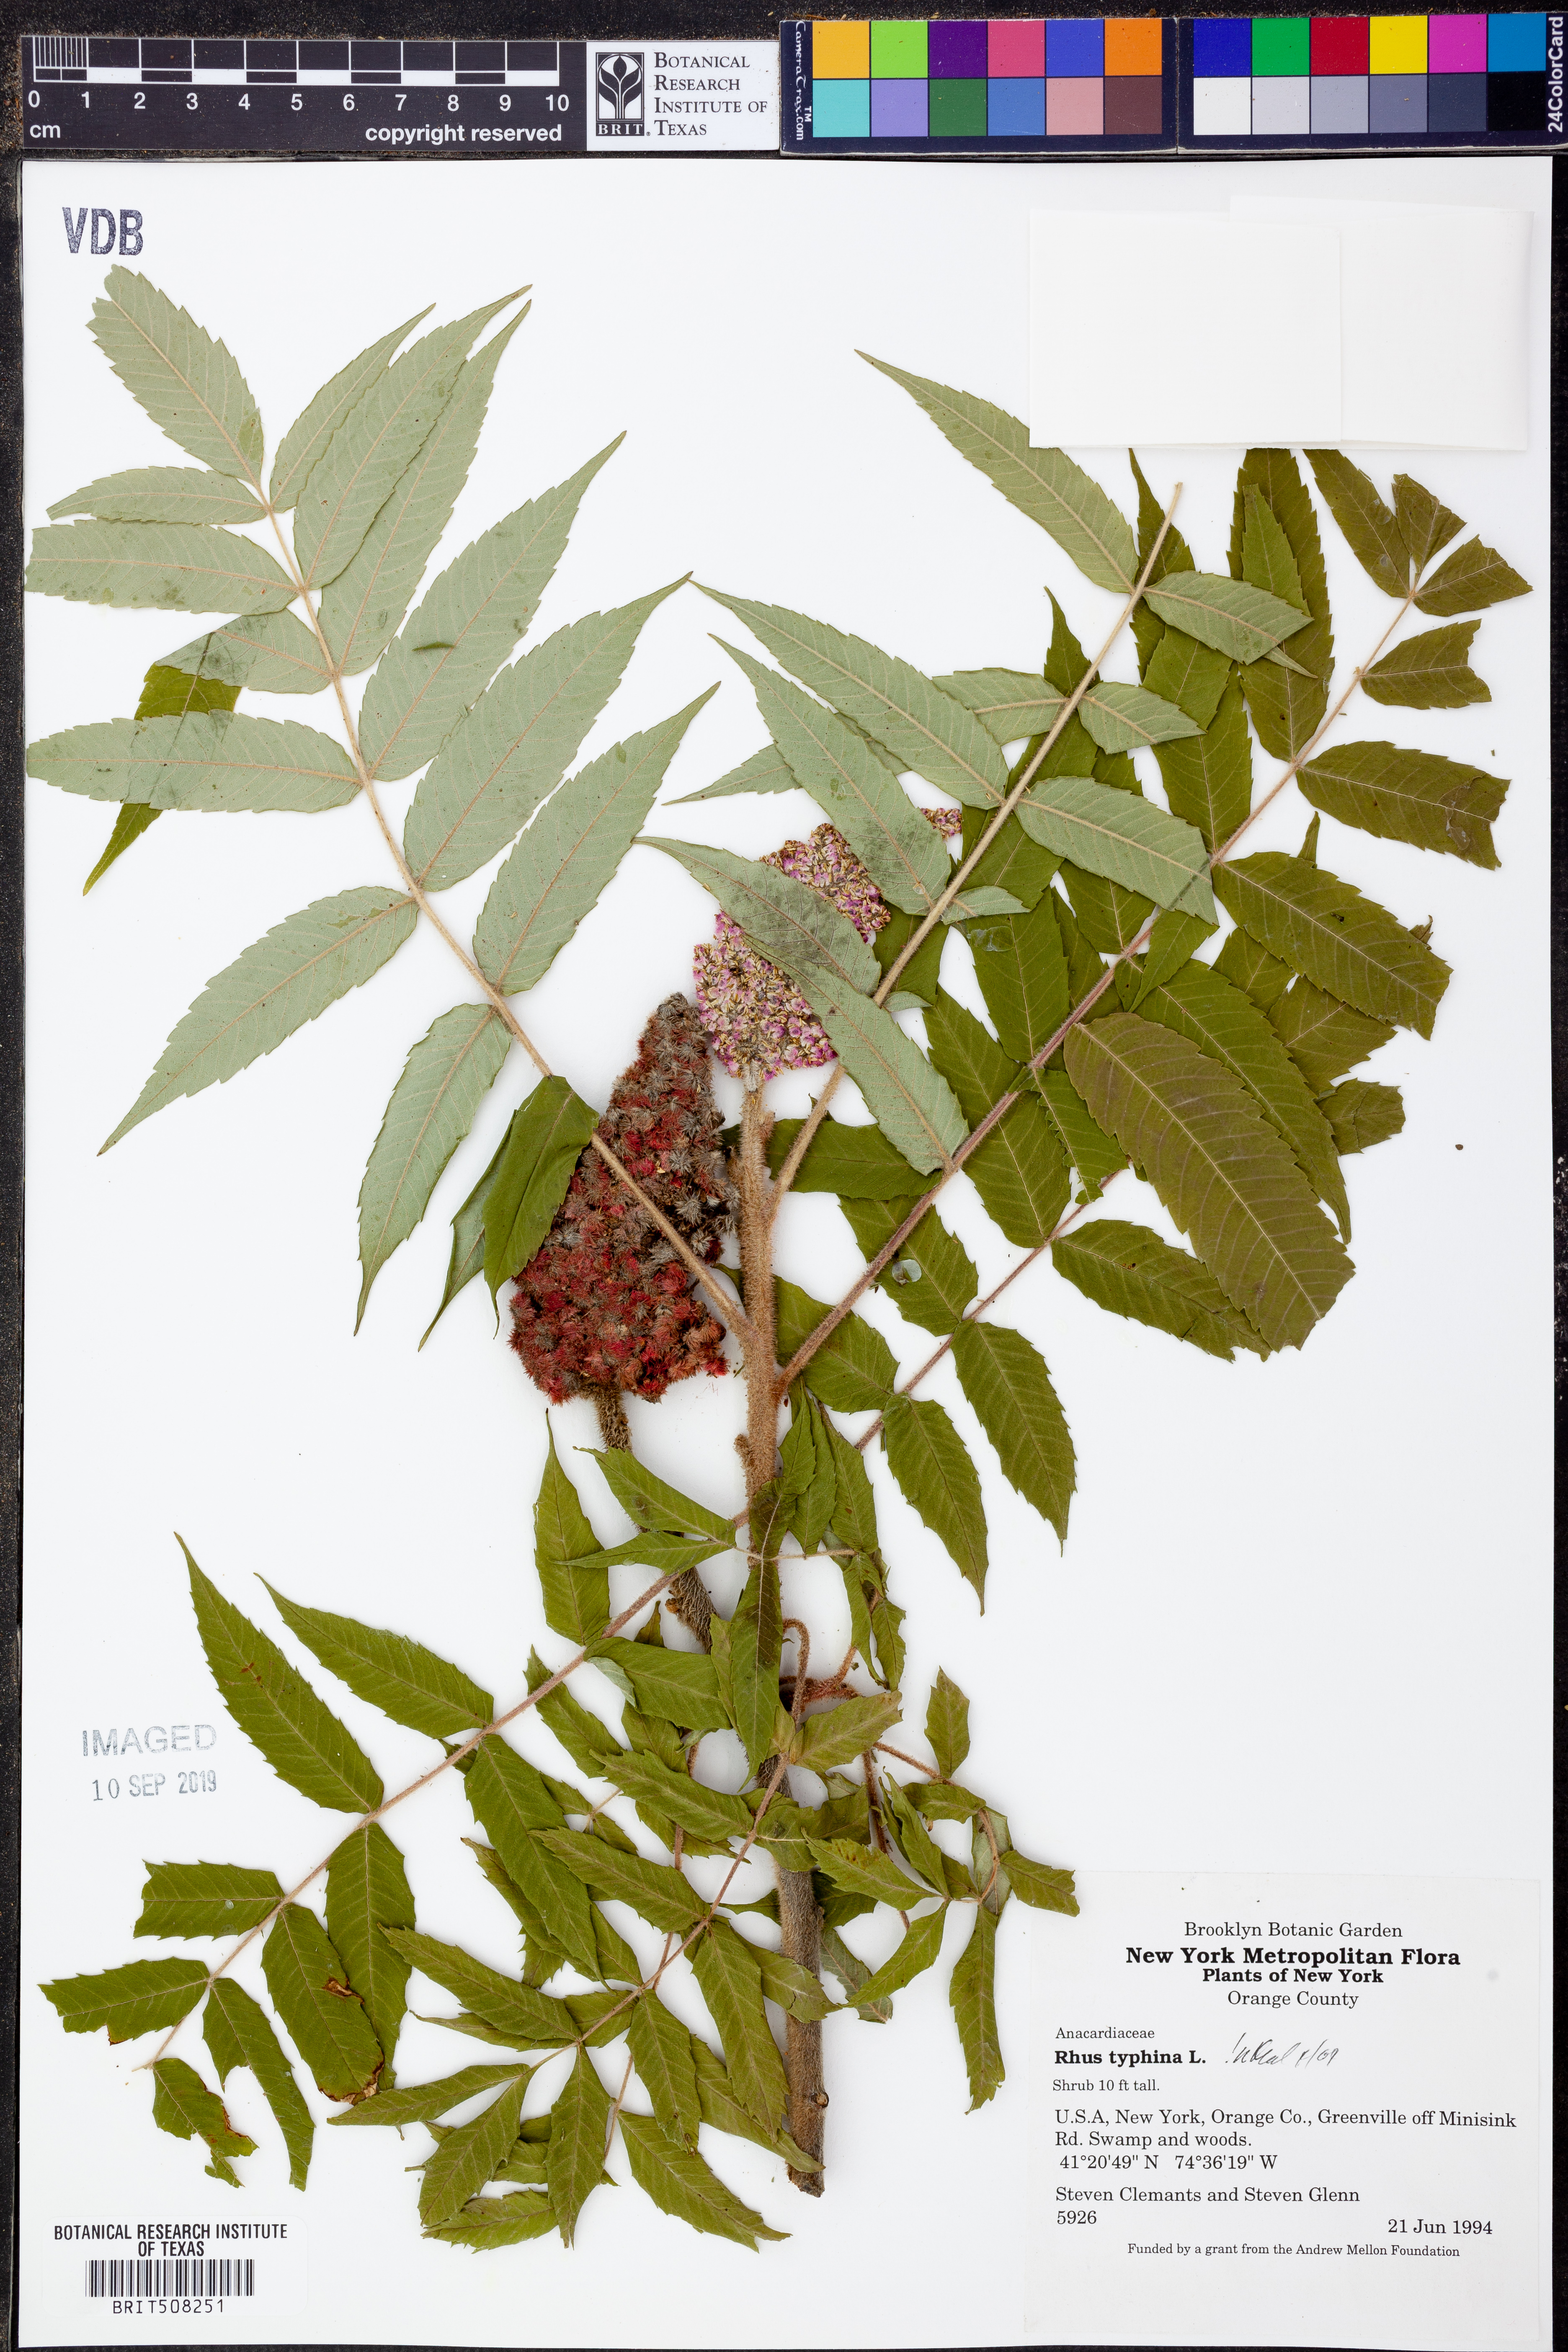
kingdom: Plantae
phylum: Tracheophyta
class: Magnoliopsida
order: Lamiales
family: Verbenaceae
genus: Phyla
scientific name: Phyla cuneifolia
